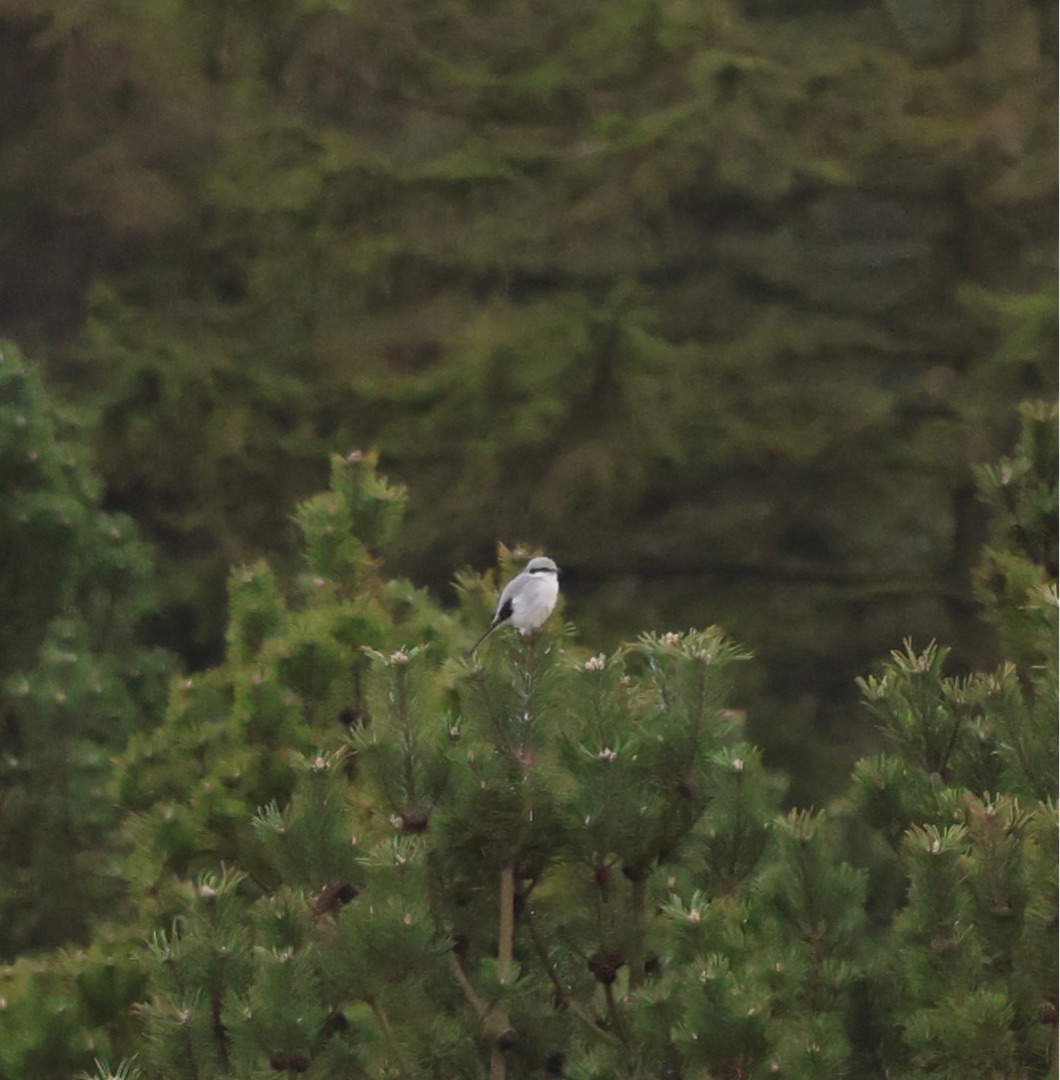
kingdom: Animalia
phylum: Chordata
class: Aves
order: Passeriformes
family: Laniidae
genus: Lanius
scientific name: Lanius excubitor
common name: Stor tornskade
